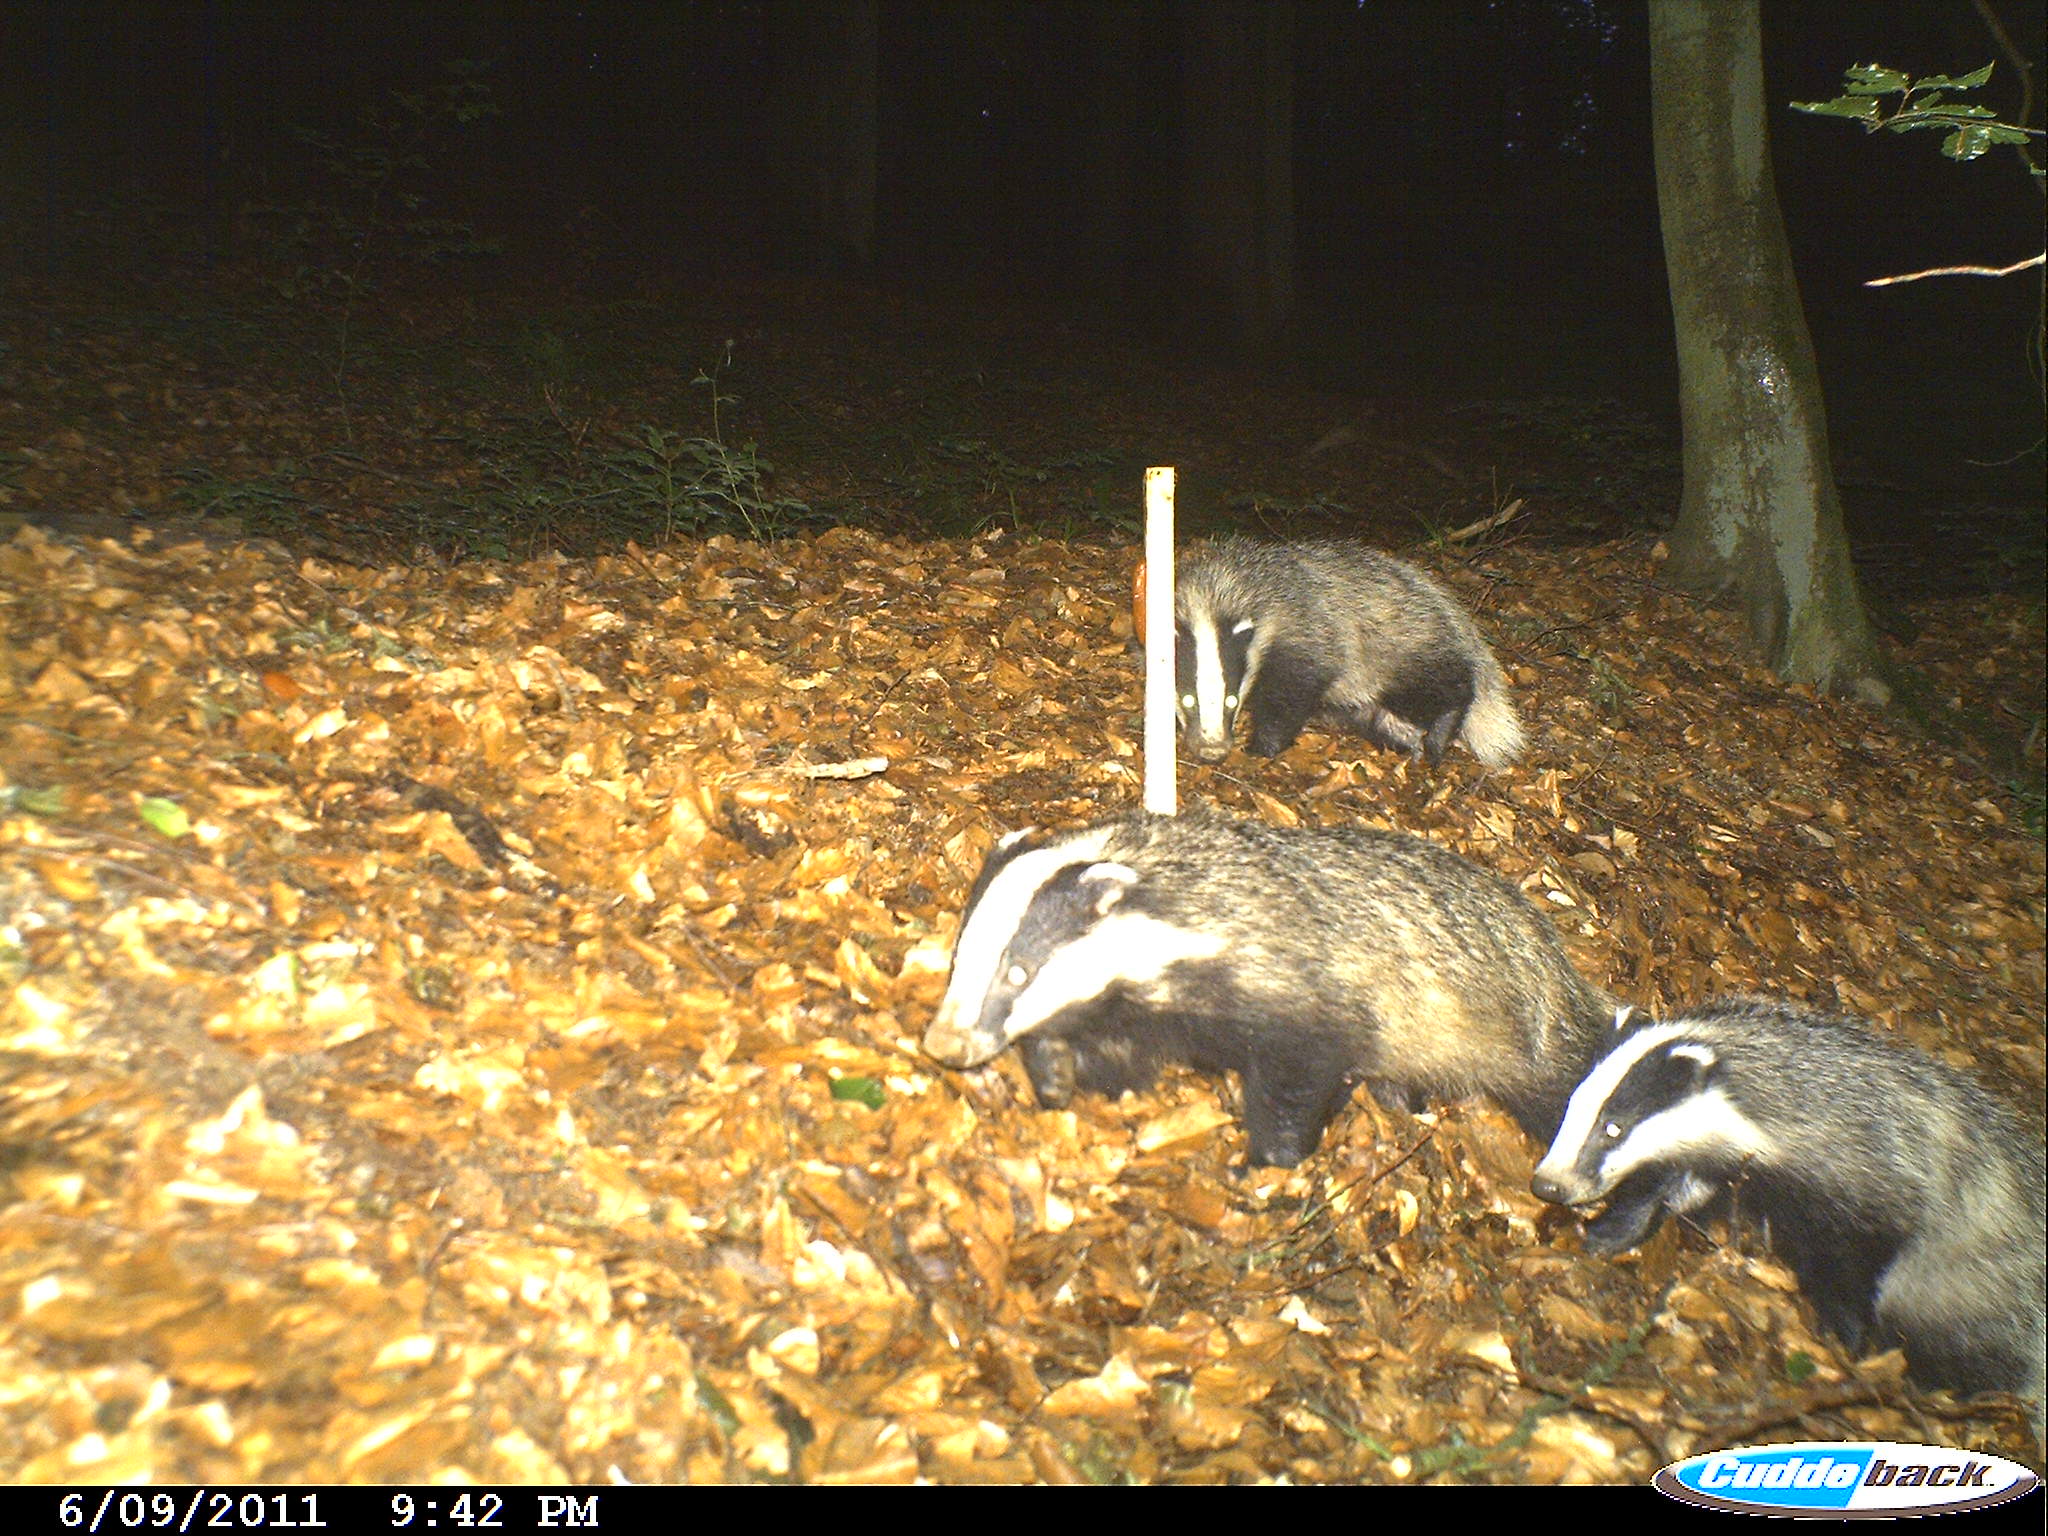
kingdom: Animalia
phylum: Chordata
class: Mammalia
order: Carnivora
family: Mustelidae
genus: Meles
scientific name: Meles meles
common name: Eurasian badger
